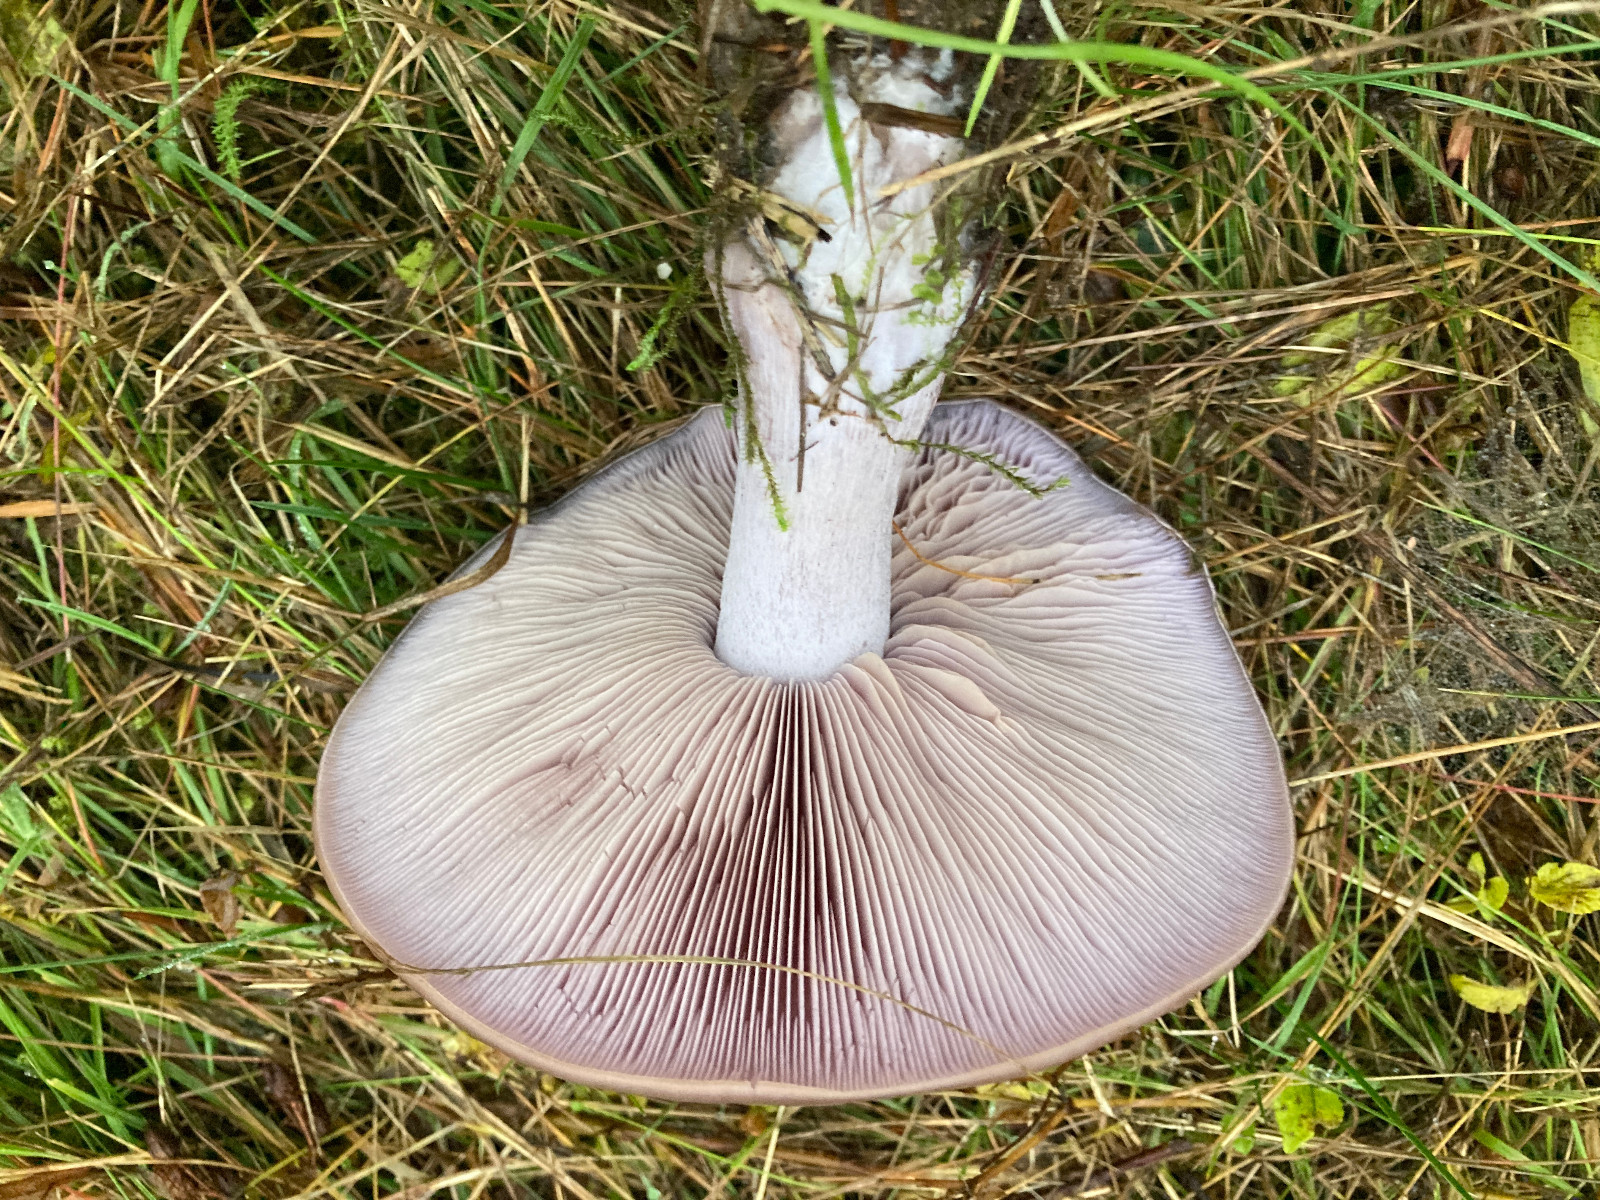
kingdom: Fungi
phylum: Basidiomycota
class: Agaricomycetes
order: Agaricales
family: Tricholomataceae
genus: Lepista
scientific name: Lepista nuda
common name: violet hekseringshat
